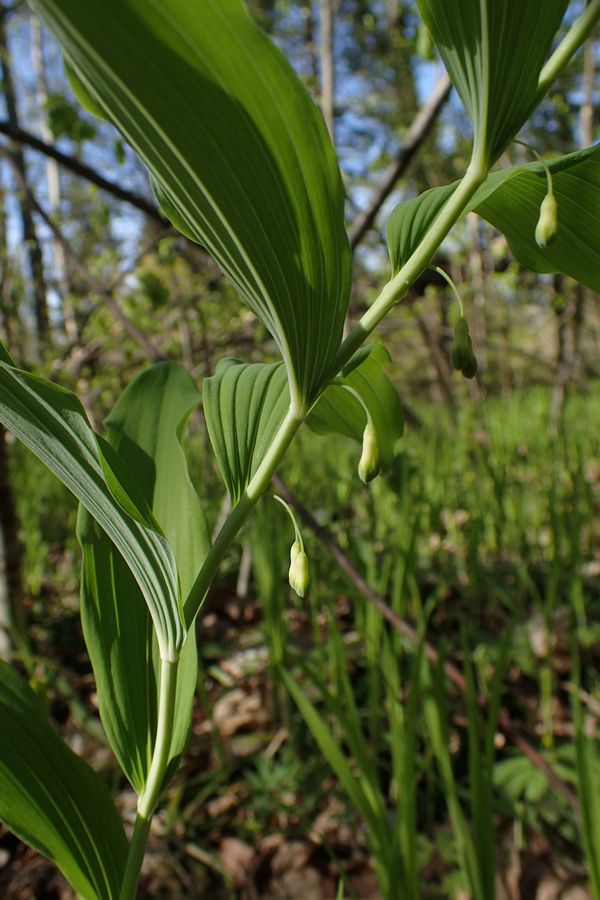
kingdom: Plantae
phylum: Tracheophyta
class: Liliopsida
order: Asparagales
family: Asparagaceae
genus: Polygonatum
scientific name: Polygonatum
